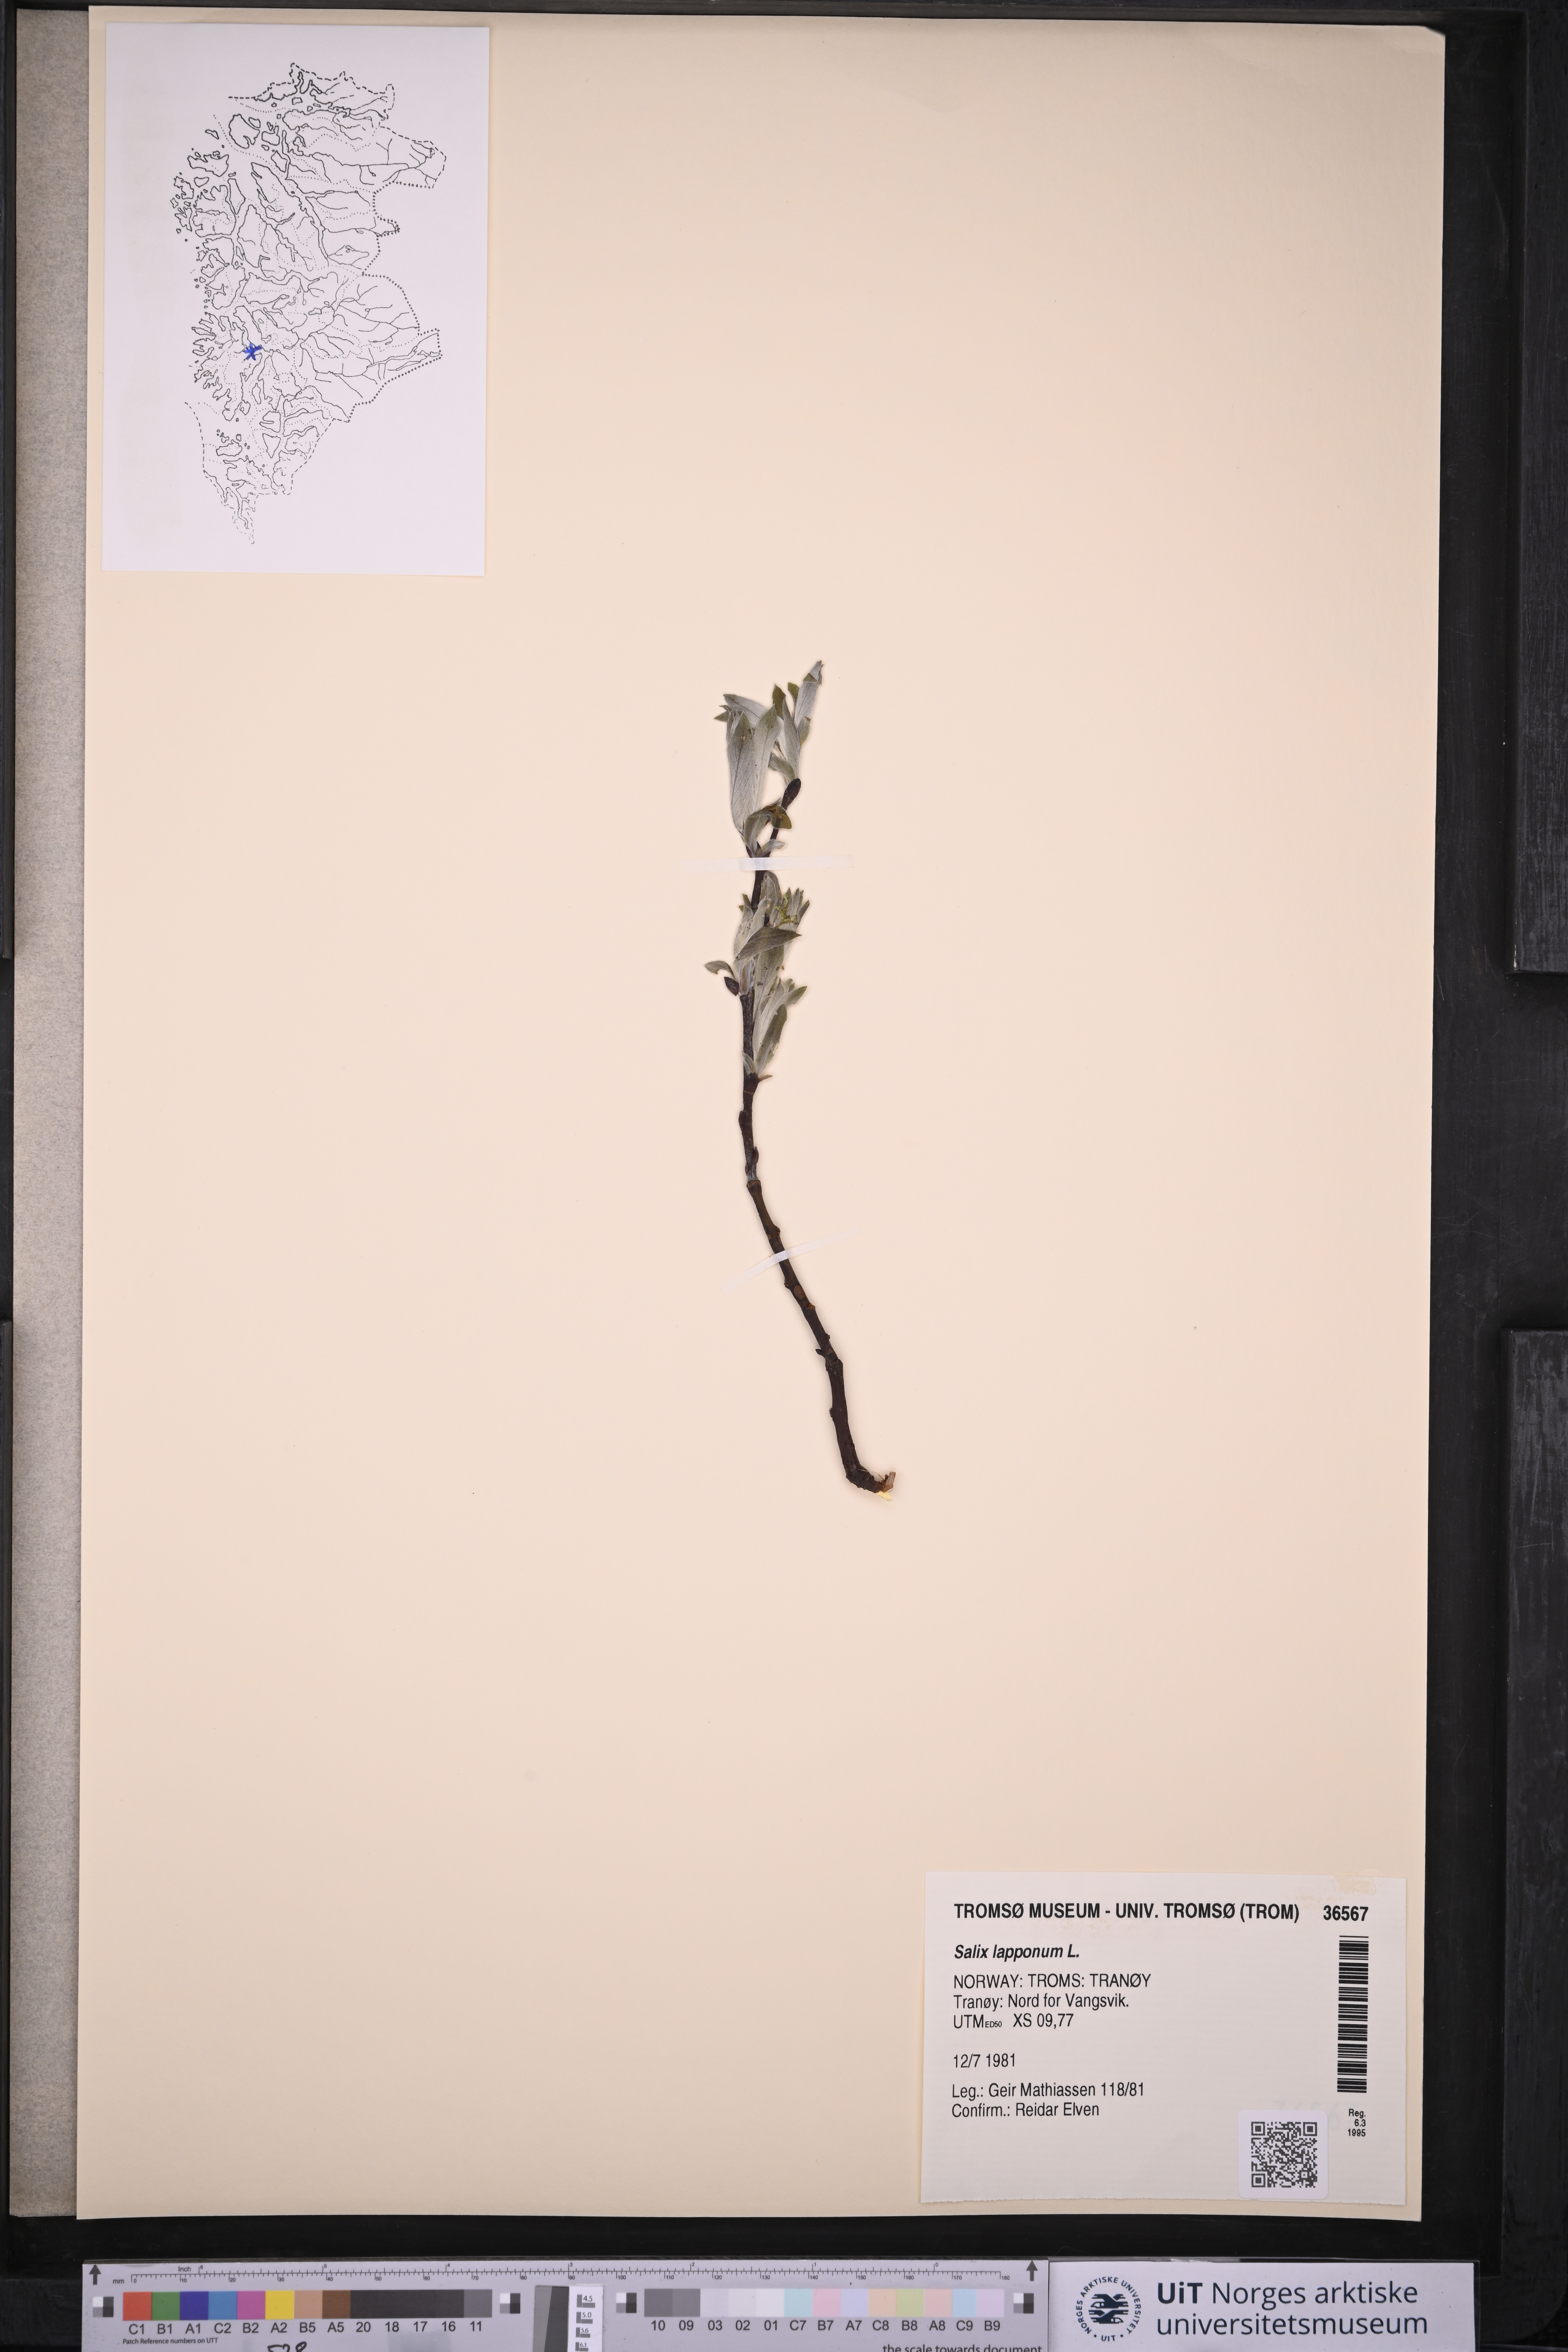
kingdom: Plantae
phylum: Tracheophyta
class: Magnoliopsida
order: Malpighiales
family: Salicaceae
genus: Salix
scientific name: Salix lapponum
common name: Downy willow
